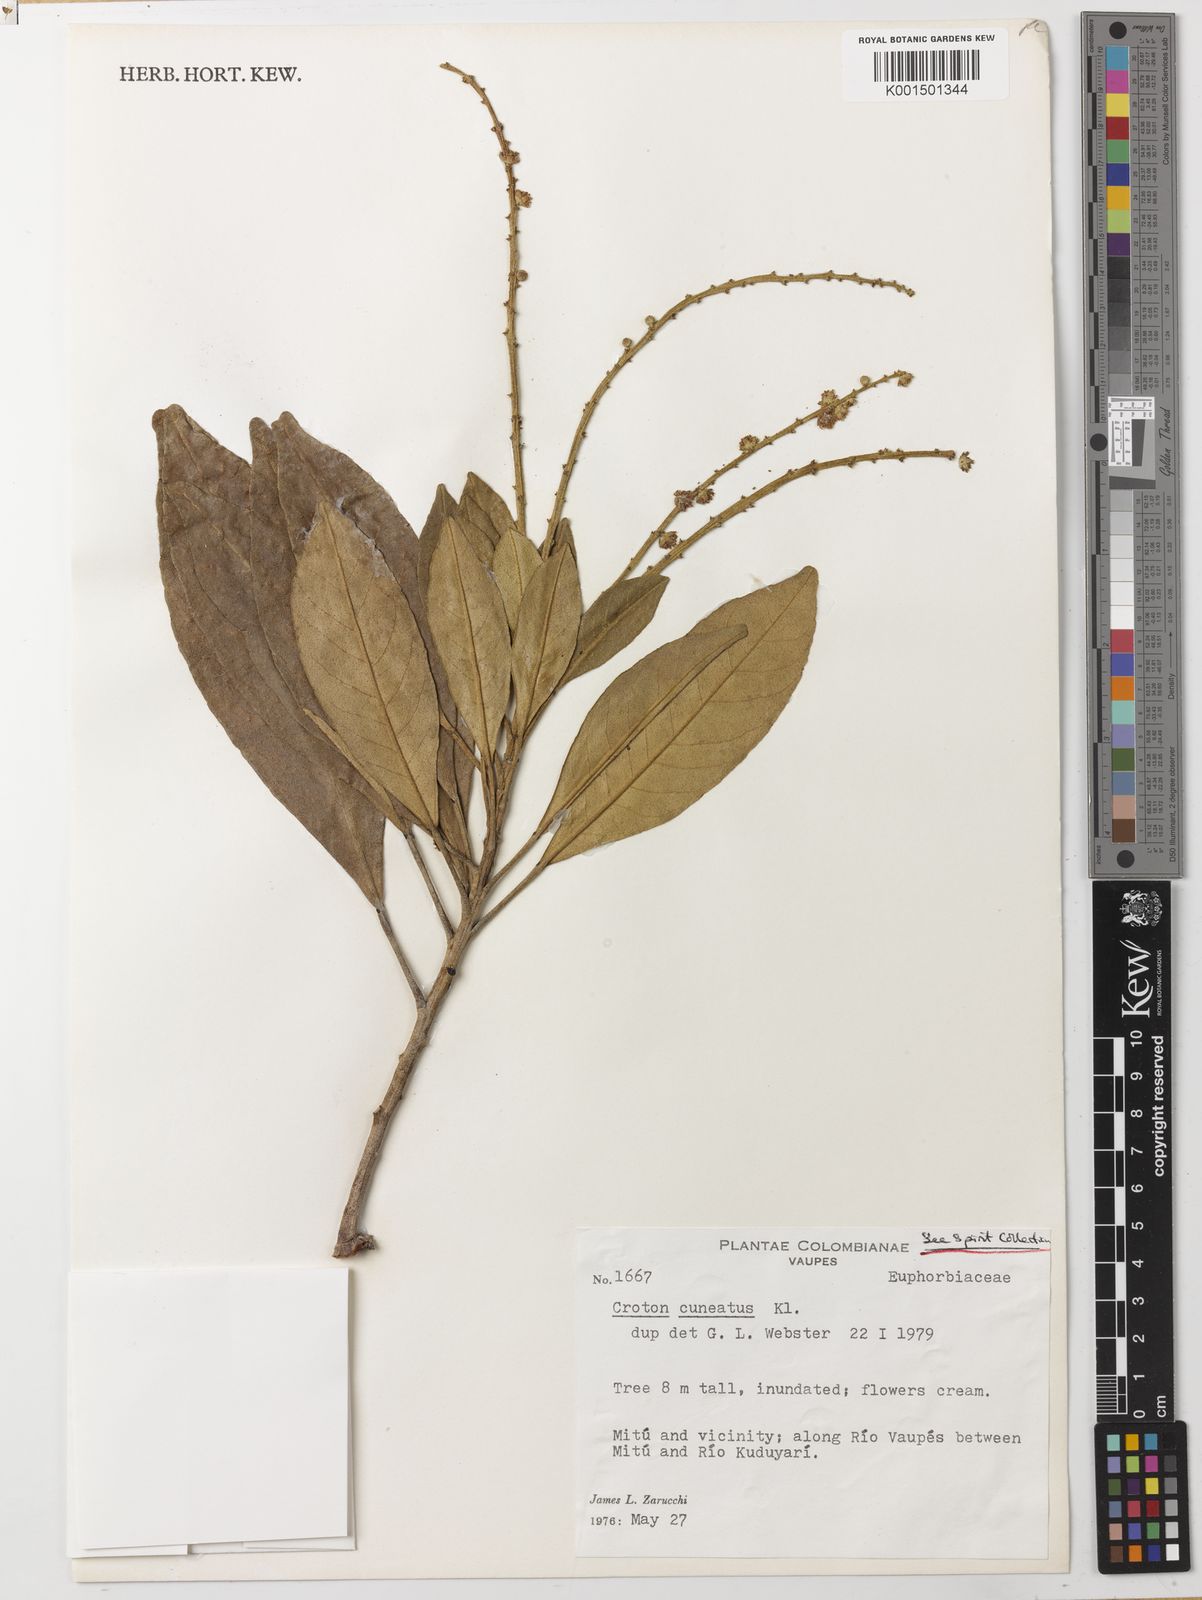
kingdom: Plantae
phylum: Tracheophyta
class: Magnoliopsida
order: Malpighiales
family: Euphorbiaceae
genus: Croton
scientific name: Croton cuneatus
